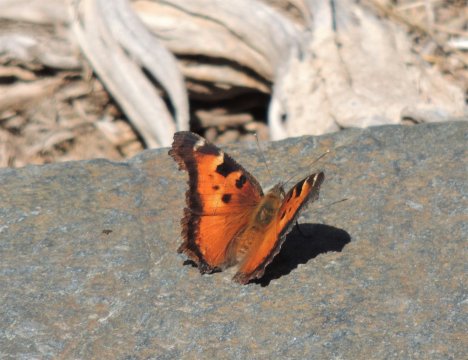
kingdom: Animalia
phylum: Arthropoda
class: Insecta
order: Lepidoptera
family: Nymphalidae
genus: Nymphalis
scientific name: Nymphalis californica
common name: California Tortoiseshell
